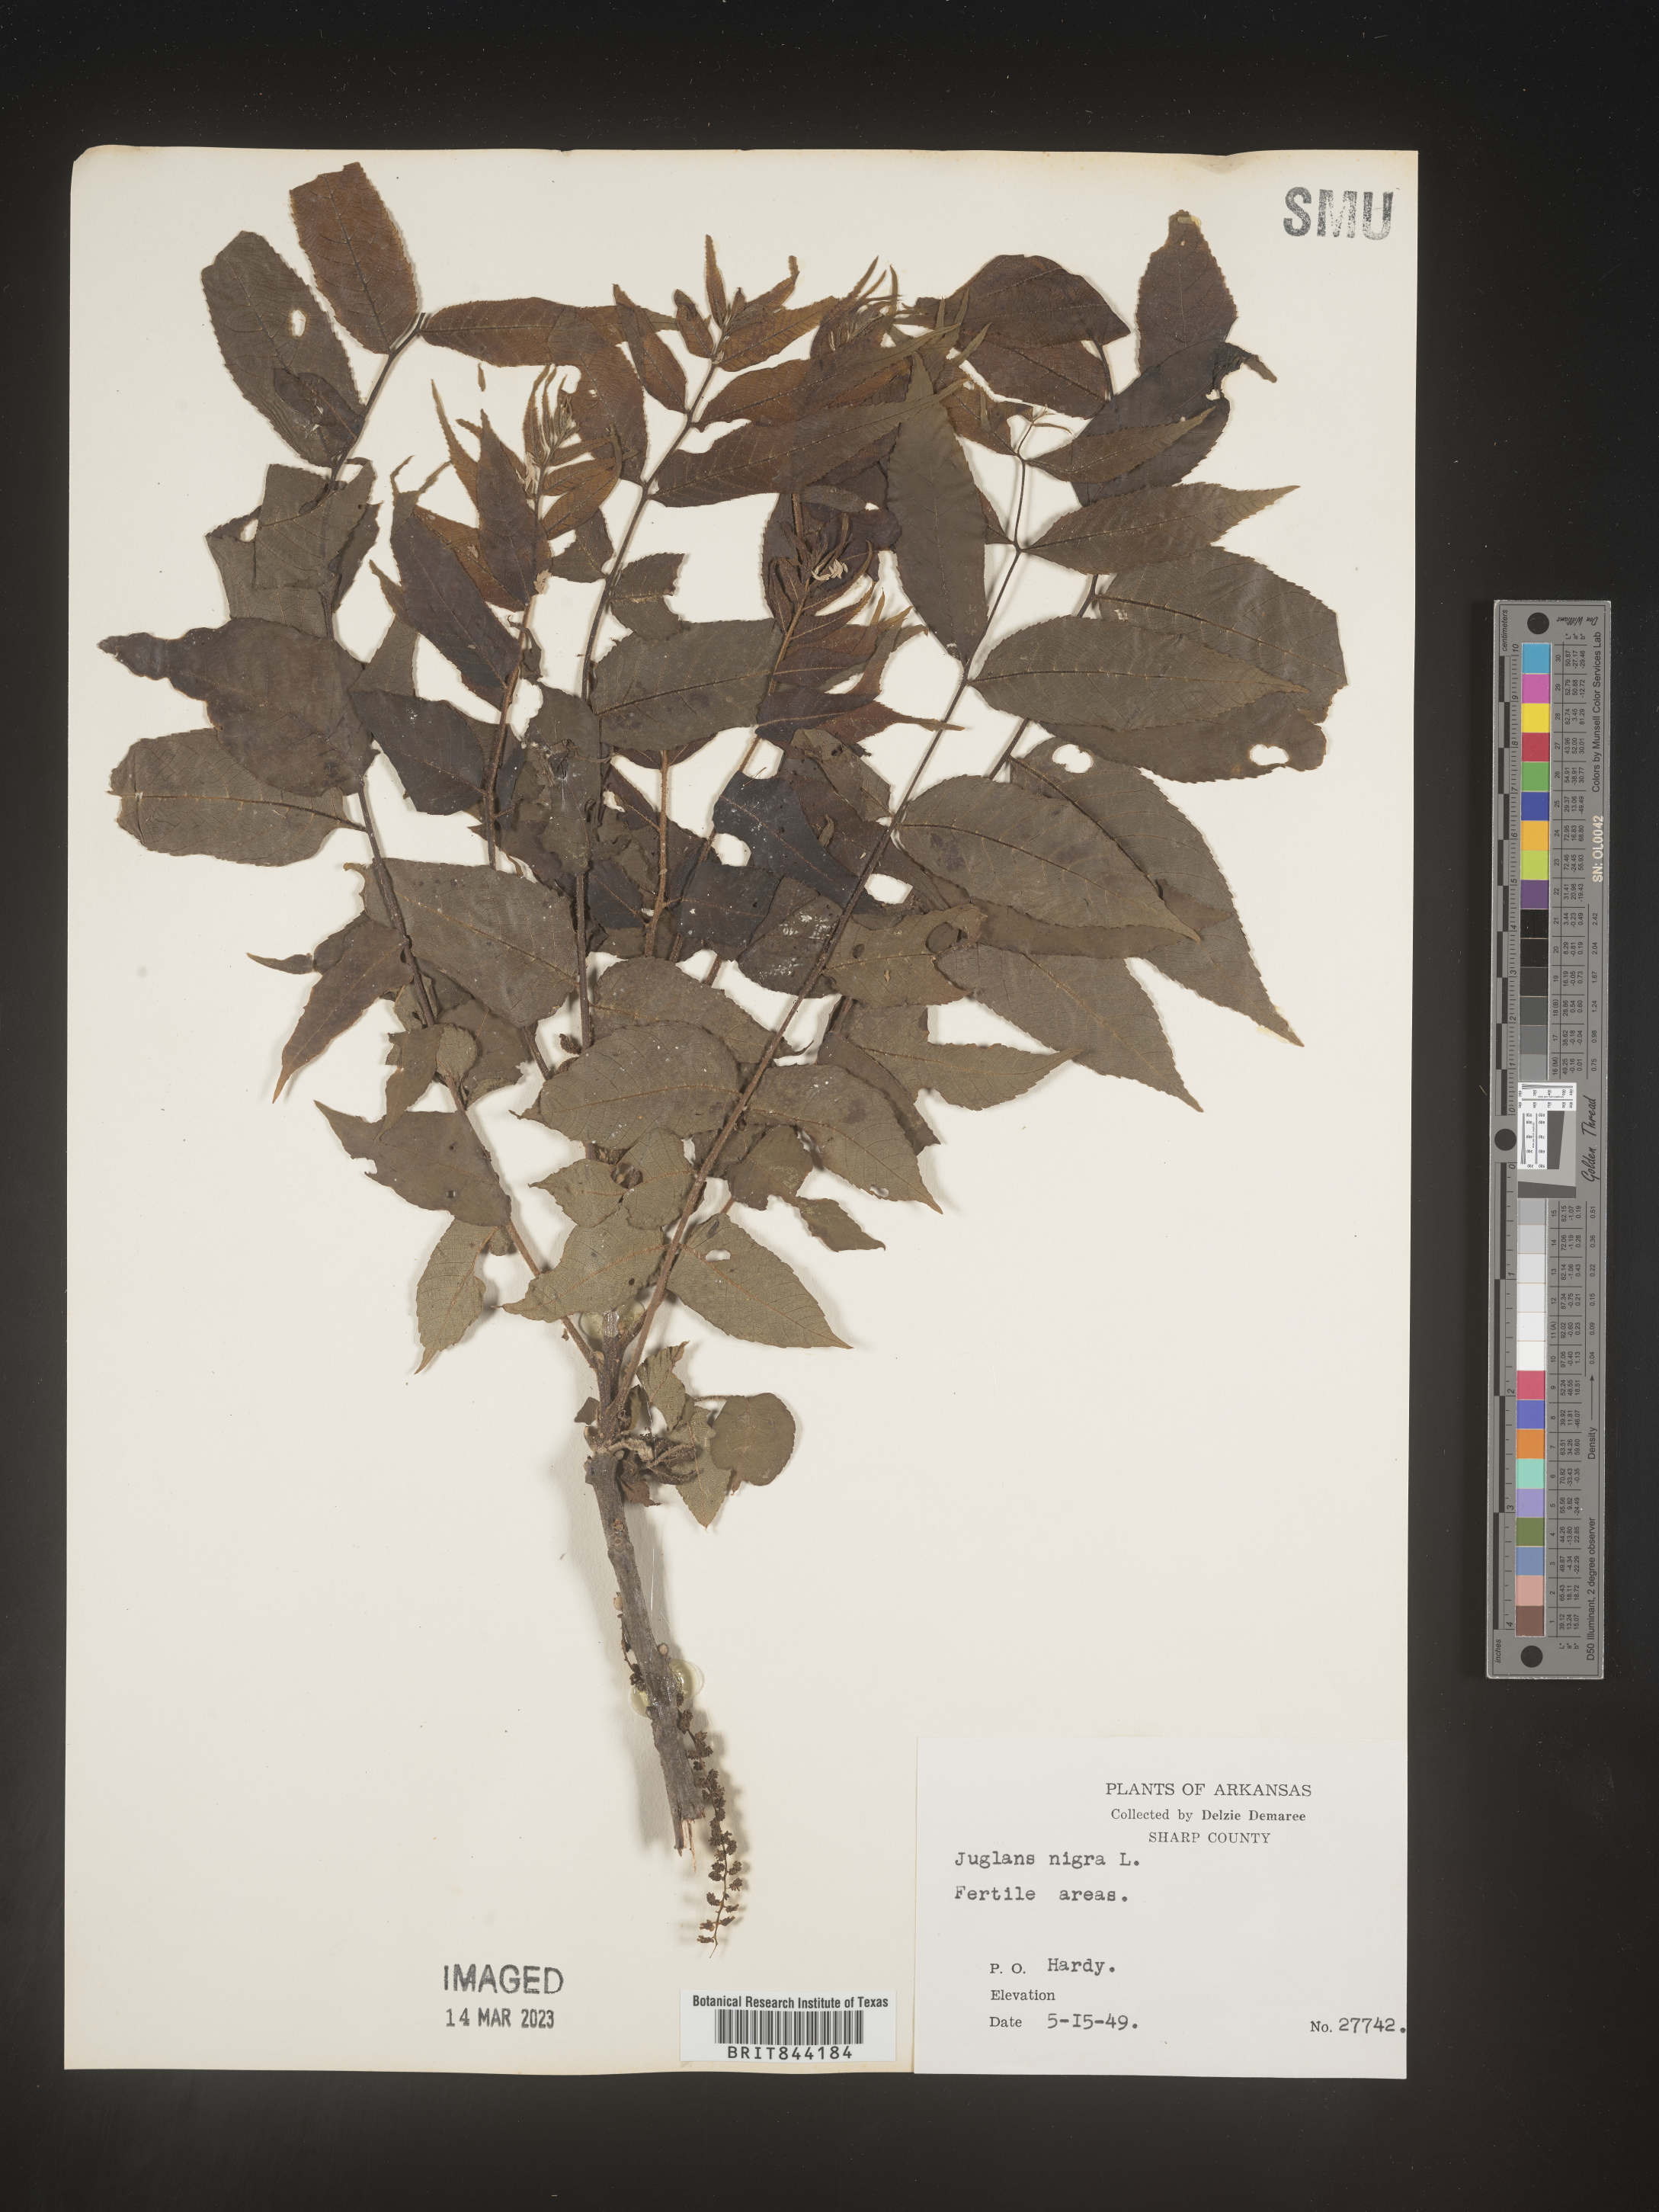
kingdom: Plantae
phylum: Tracheophyta
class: Magnoliopsida
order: Fagales
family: Juglandaceae
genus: Juglans
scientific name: Juglans nigra
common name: Black walnut
